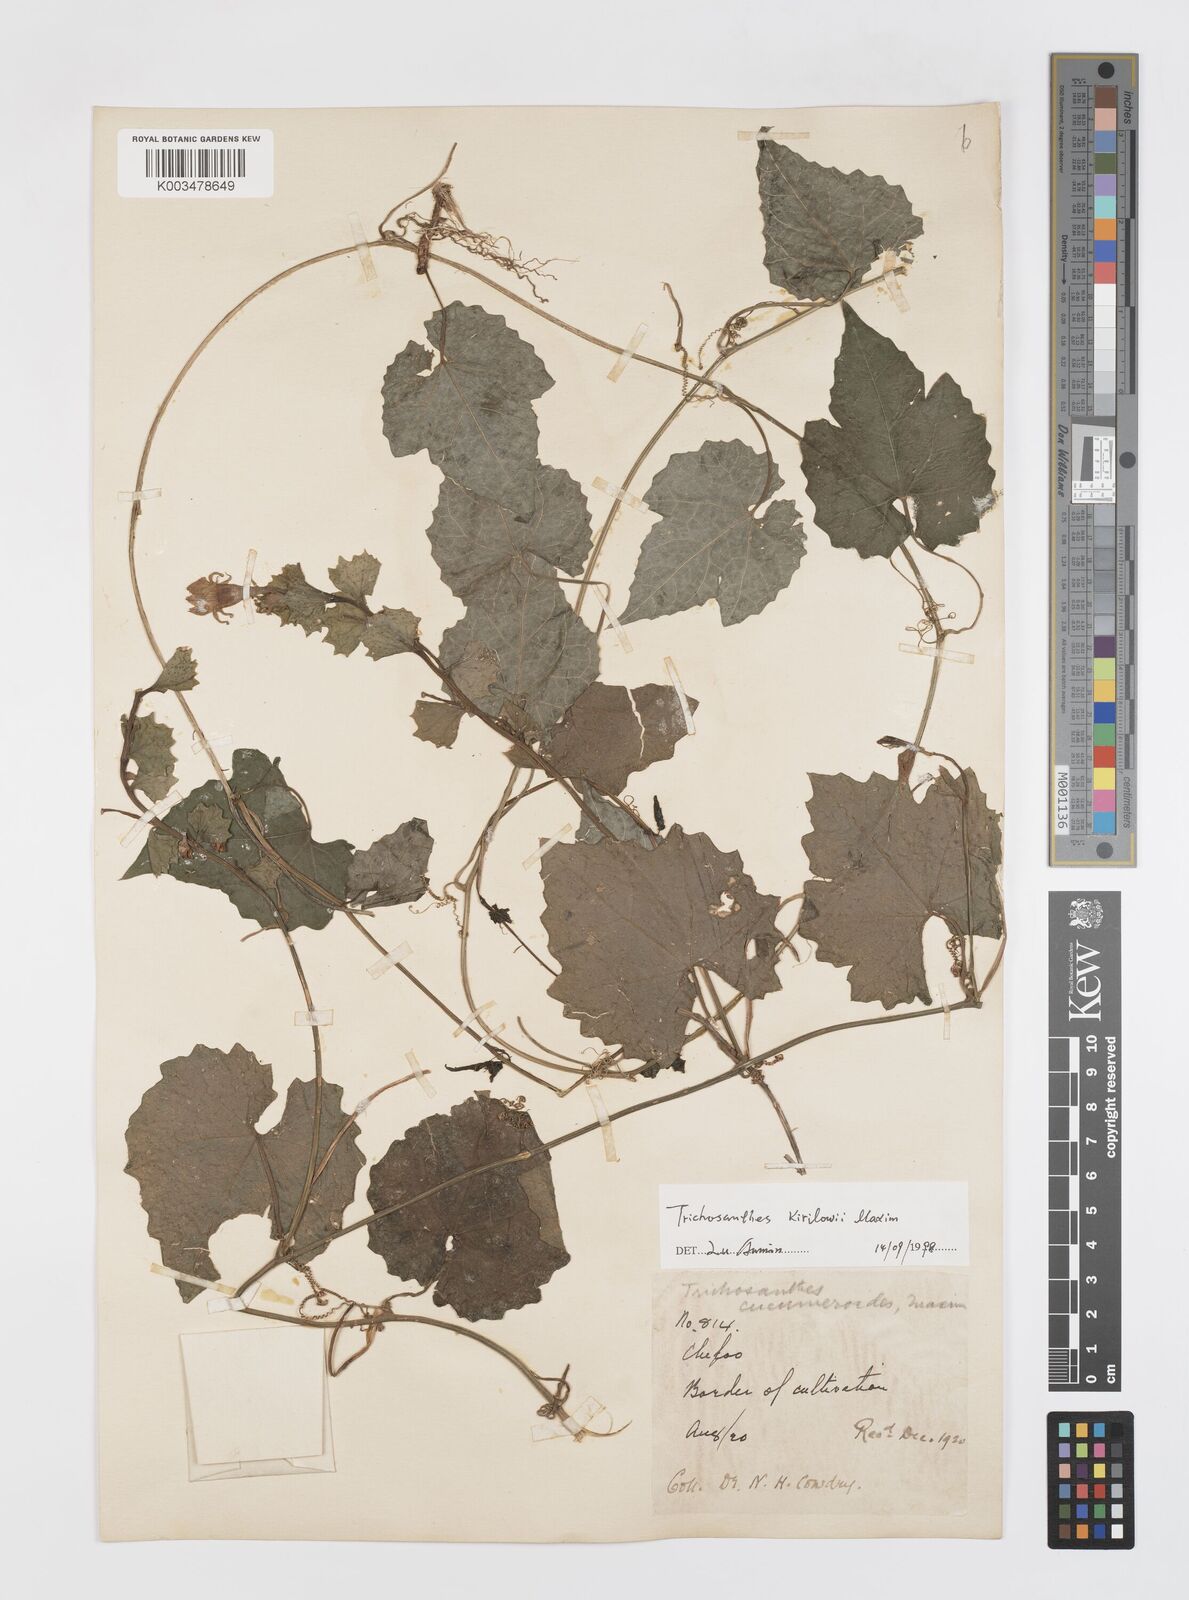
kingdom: Plantae
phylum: Tracheophyta
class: Magnoliopsida
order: Cucurbitales
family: Cucurbitaceae
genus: Trichosanthes
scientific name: Trichosanthes kirilowii
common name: Chinese-cucumber
